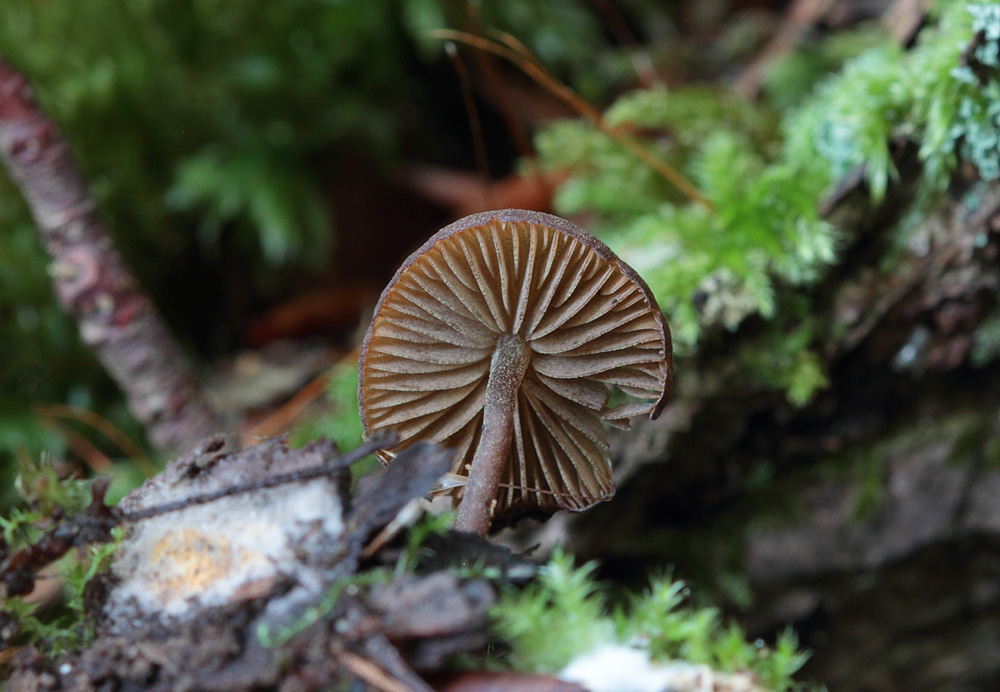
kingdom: Fungi
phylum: Basidiomycota
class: Agaricomycetes
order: Agaricales
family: Crepidotaceae
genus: Simocybe
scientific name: Simocybe centunculus
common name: enlig skyggehat
